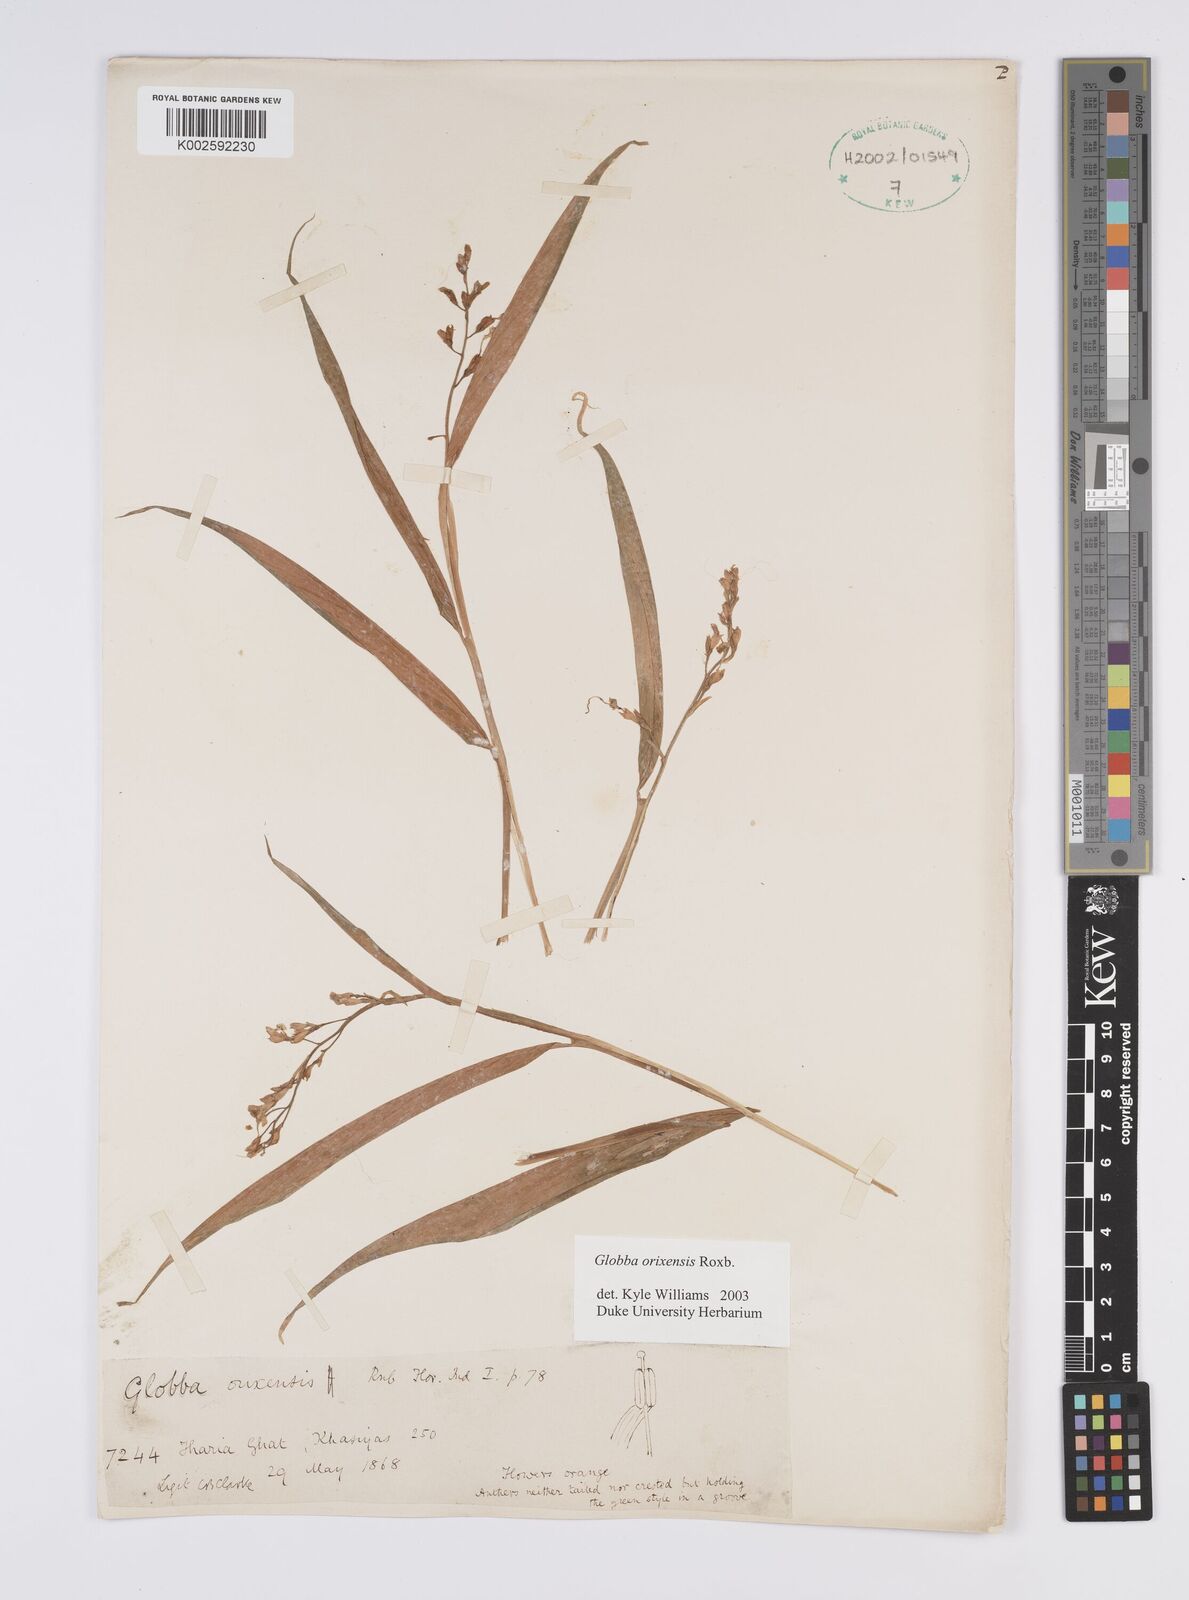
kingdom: Plantae
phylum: Tracheophyta
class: Liliopsida
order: Zingiberales
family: Zingiberaceae
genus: Globba
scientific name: Globba orixensis
